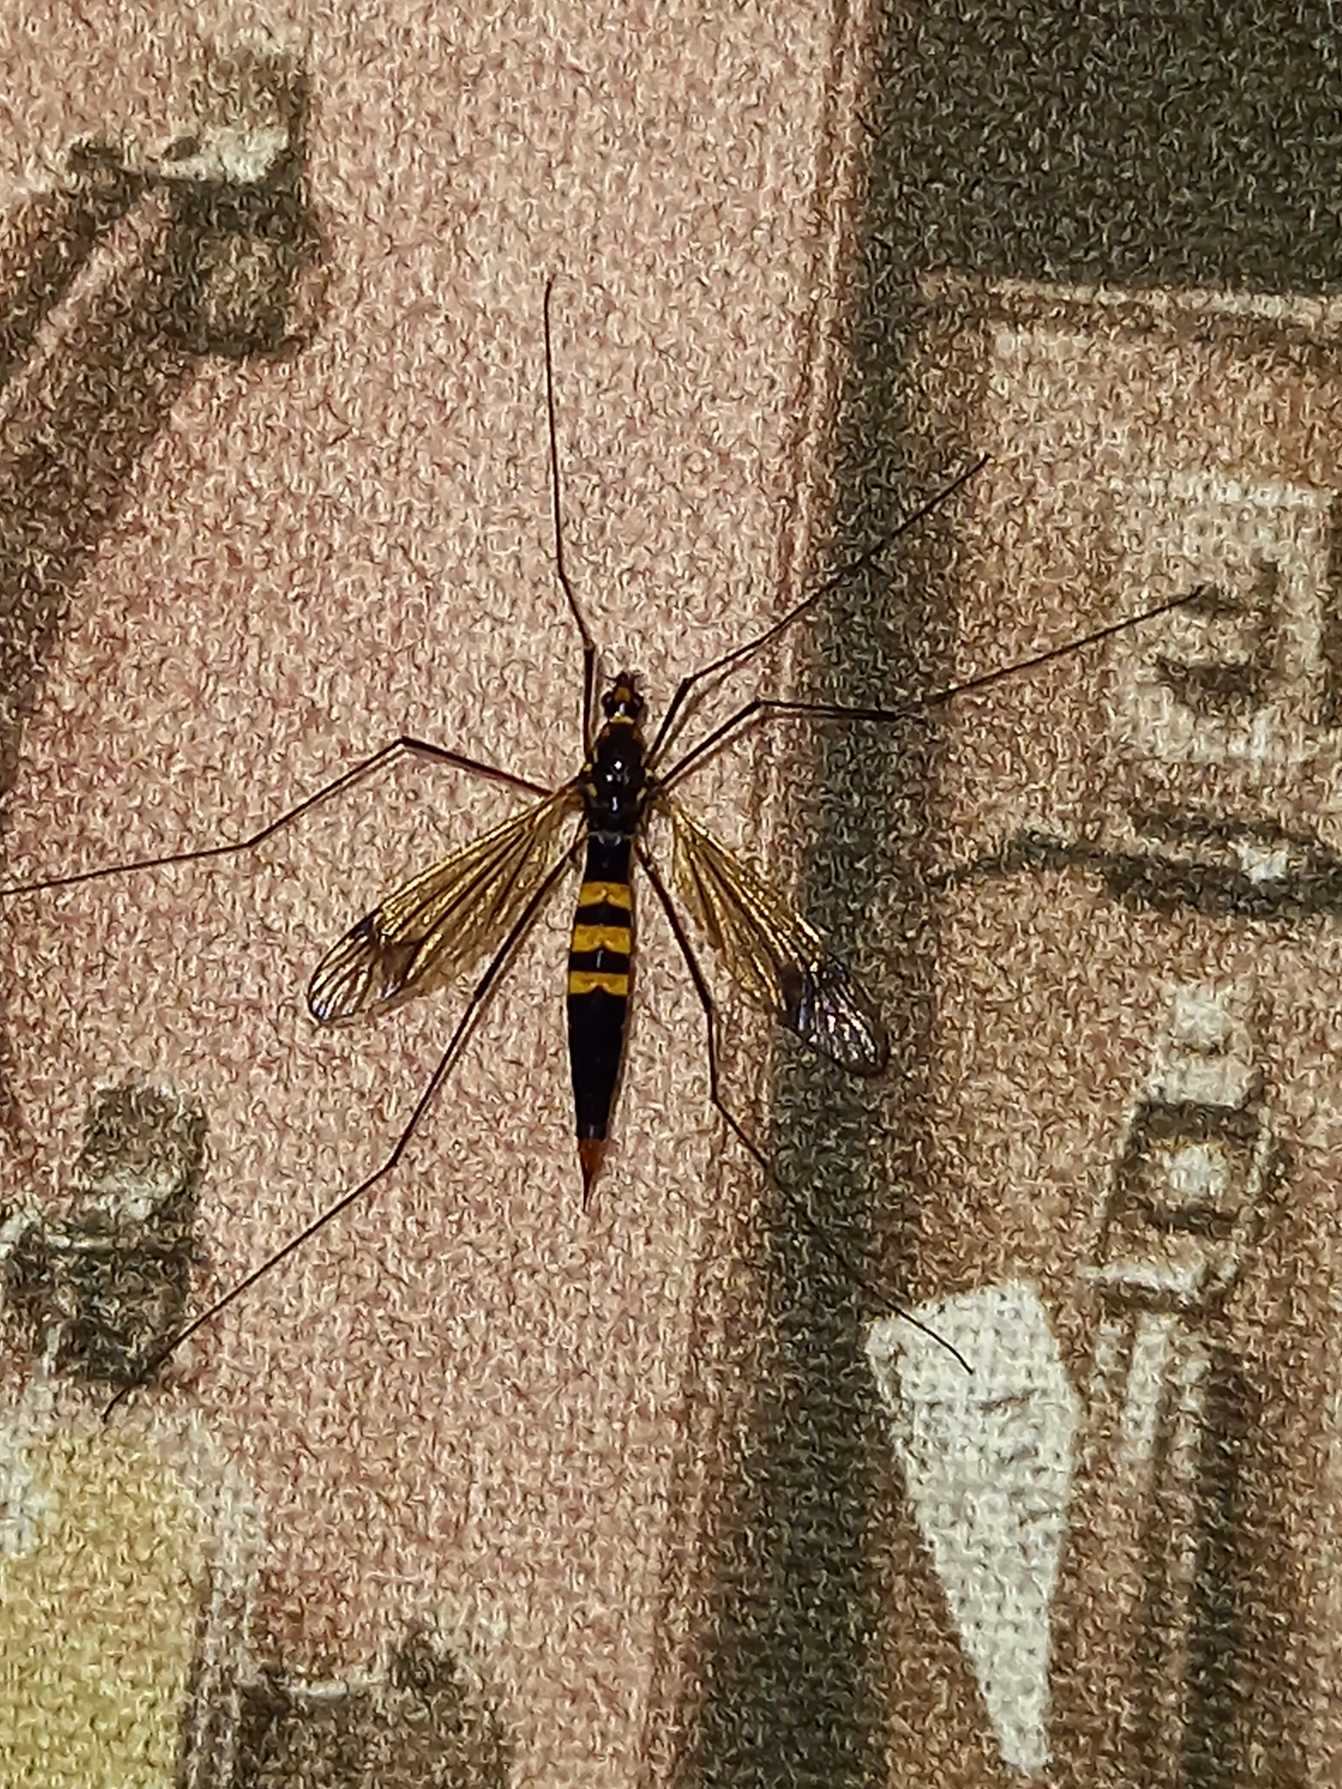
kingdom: Animalia
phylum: Arthropoda
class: Insecta
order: Diptera
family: Tipulidae
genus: Nephrotoma
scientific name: Nephrotoma crocata
